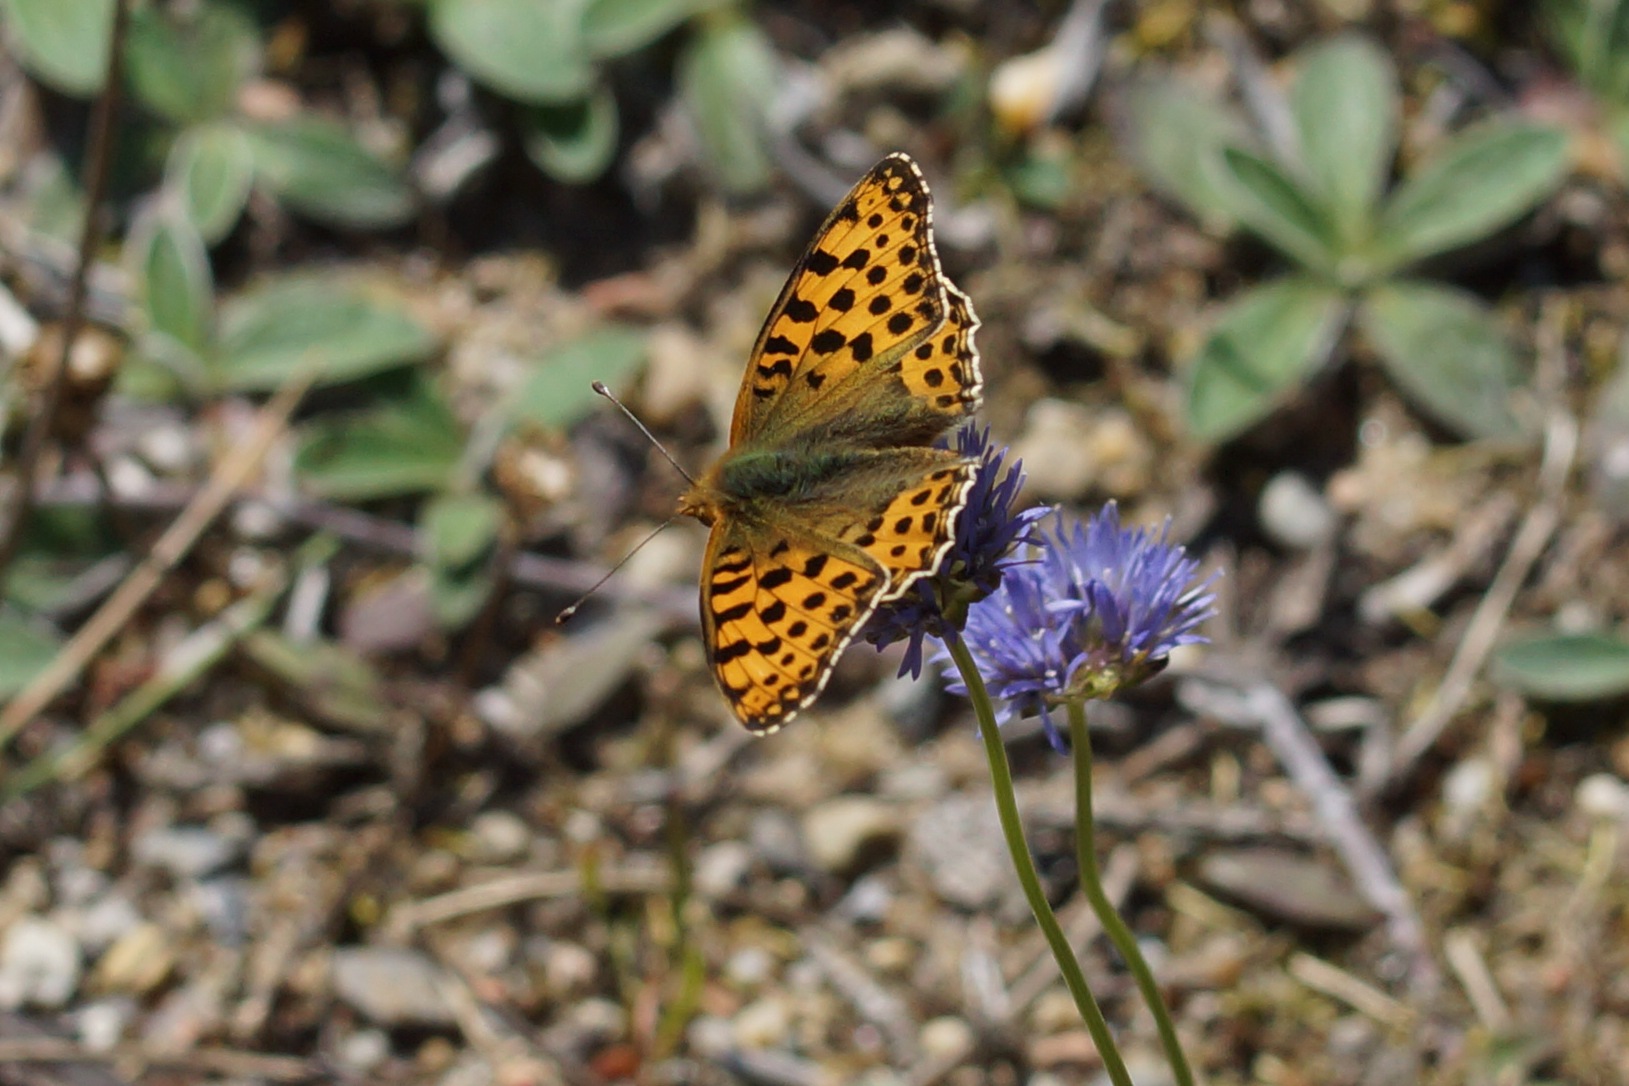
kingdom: Animalia
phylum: Arthropoda
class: Insecta
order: Lepidoptera
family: Nymphalidae
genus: Issoria
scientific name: Issoria lathonia
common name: Storplettet perlemorsommerfugl
